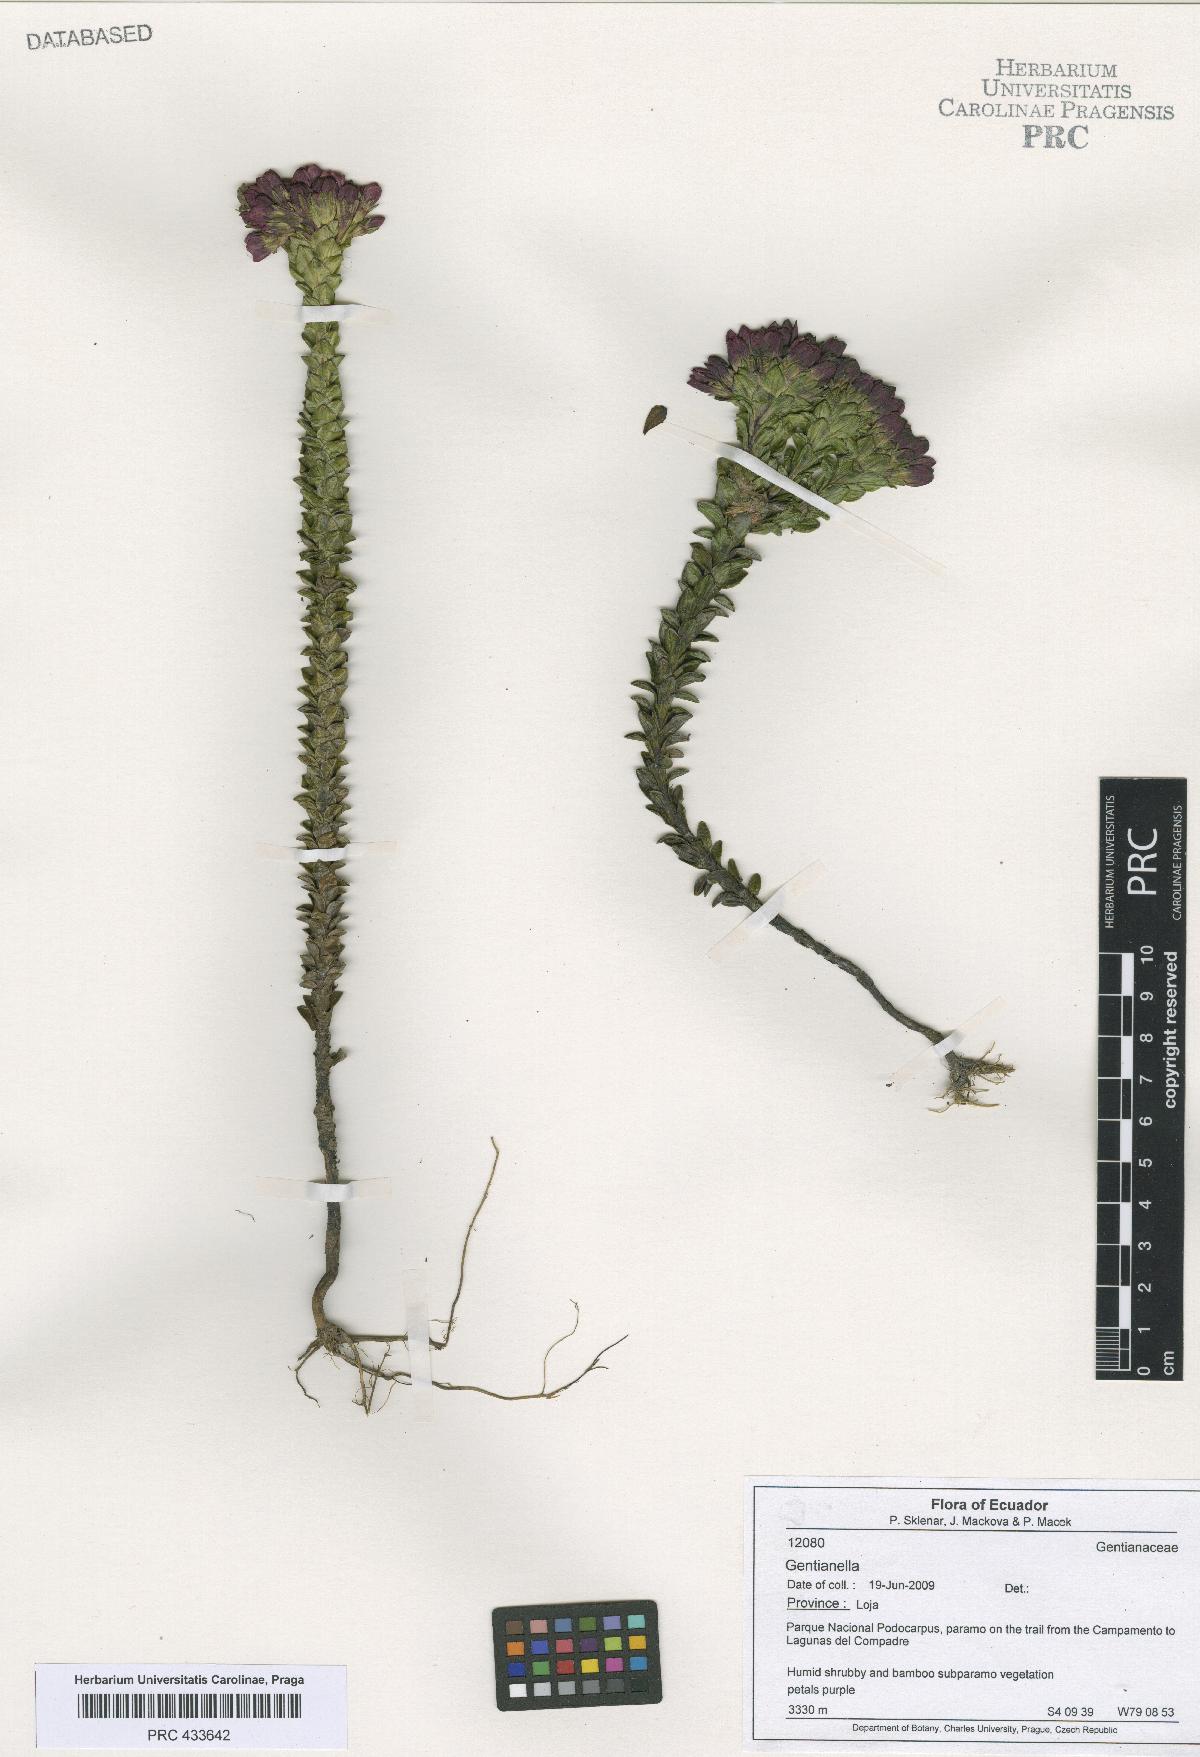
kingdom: Plantae
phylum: Tracheophyta
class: Magnoliopsida
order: Gentianales
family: Gentianaceae
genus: Gentianella
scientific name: Gentianella
